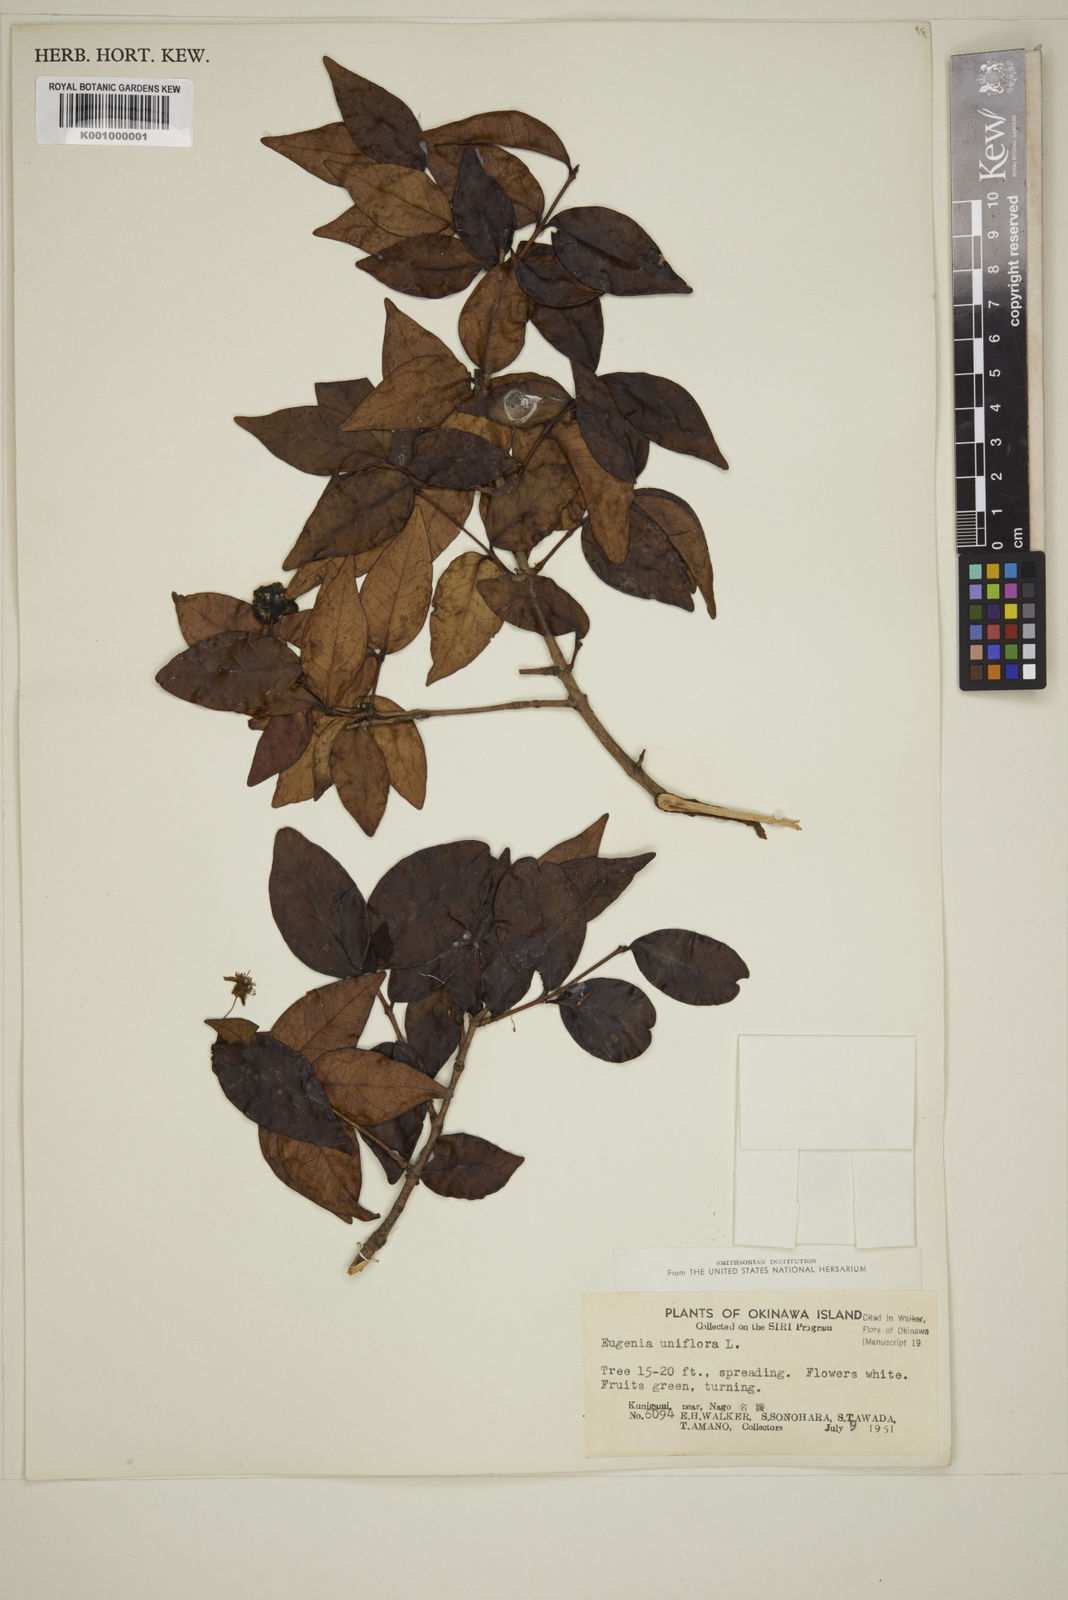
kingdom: Plantae
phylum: Tracheophyta
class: Magnoliopsida
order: Myrtales
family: Myrtaceae
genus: Eugenia
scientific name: Eugenia uniflora
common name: Surinam cherry
